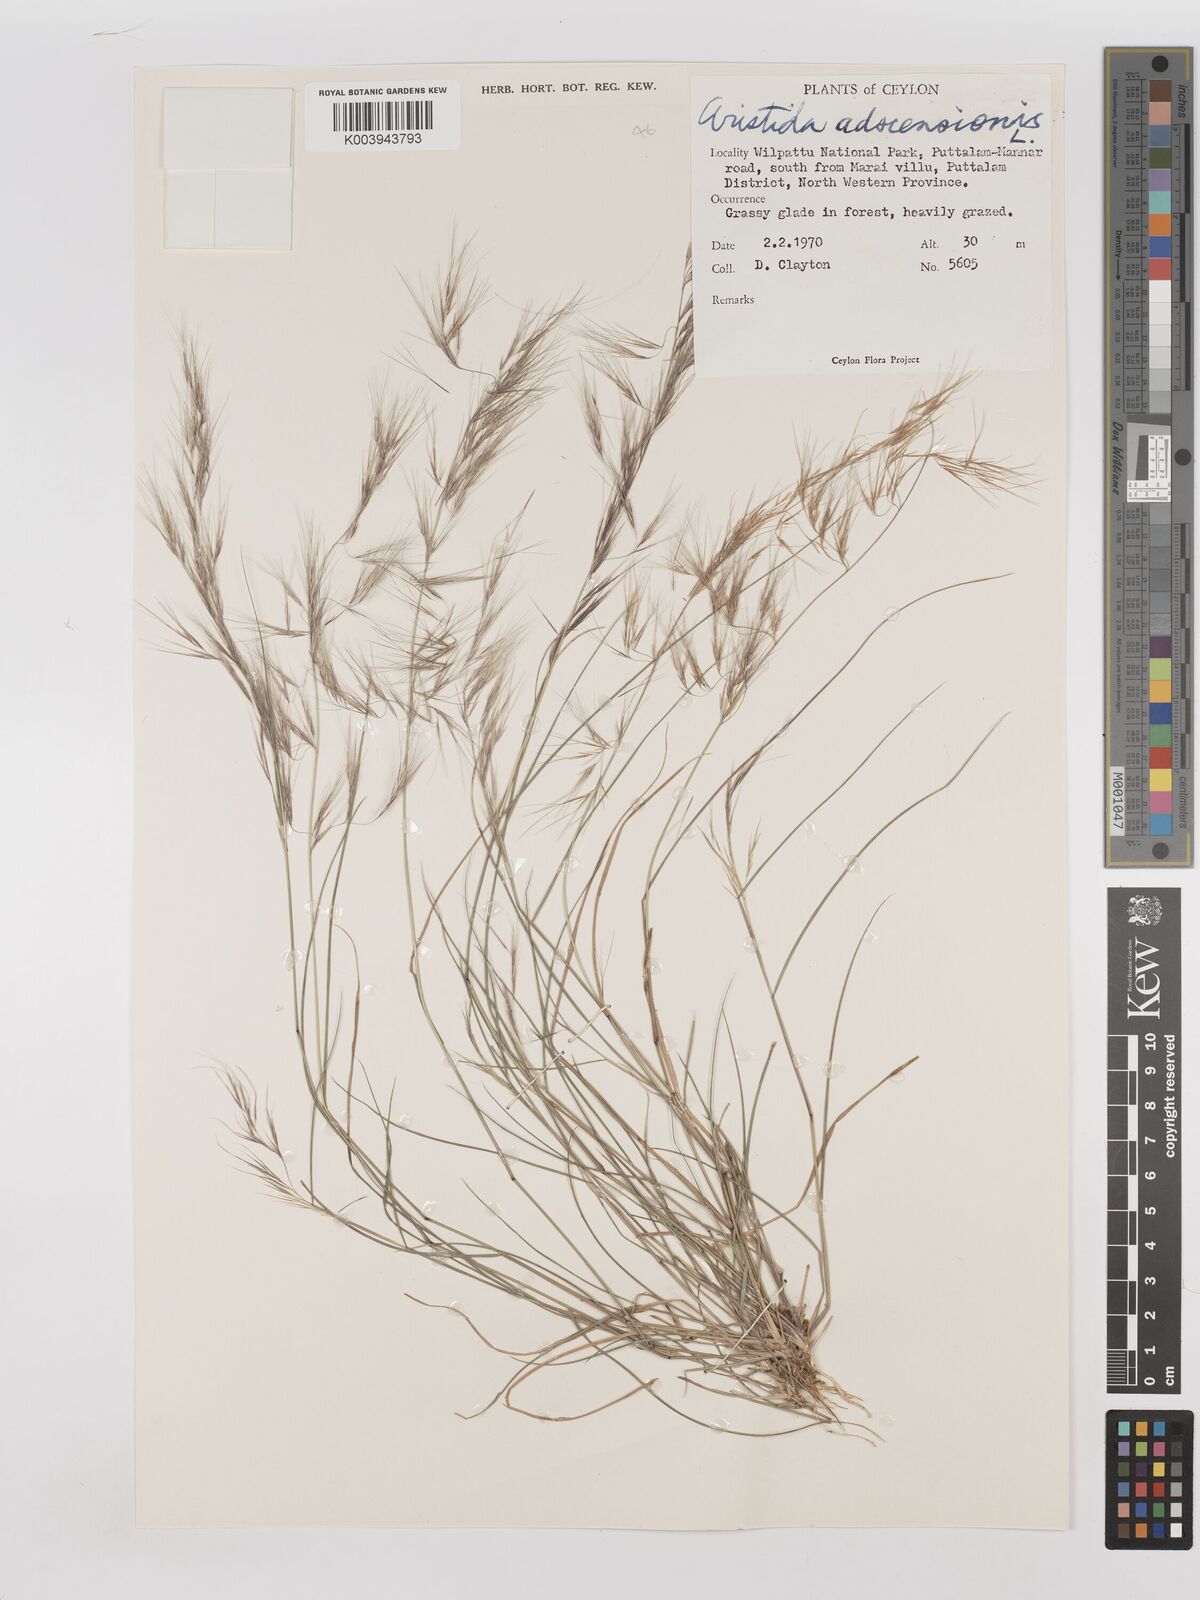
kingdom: Plantae
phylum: Tracheophyta
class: Liliopsida
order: Poales
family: Poaceae
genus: Aristida
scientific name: Aristida adscensionis
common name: Sixweeks threeawn
